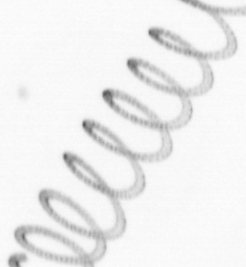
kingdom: Chromista
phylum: Ochrophyta
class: Bacillariophyceae
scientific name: Bacillariophyceae
